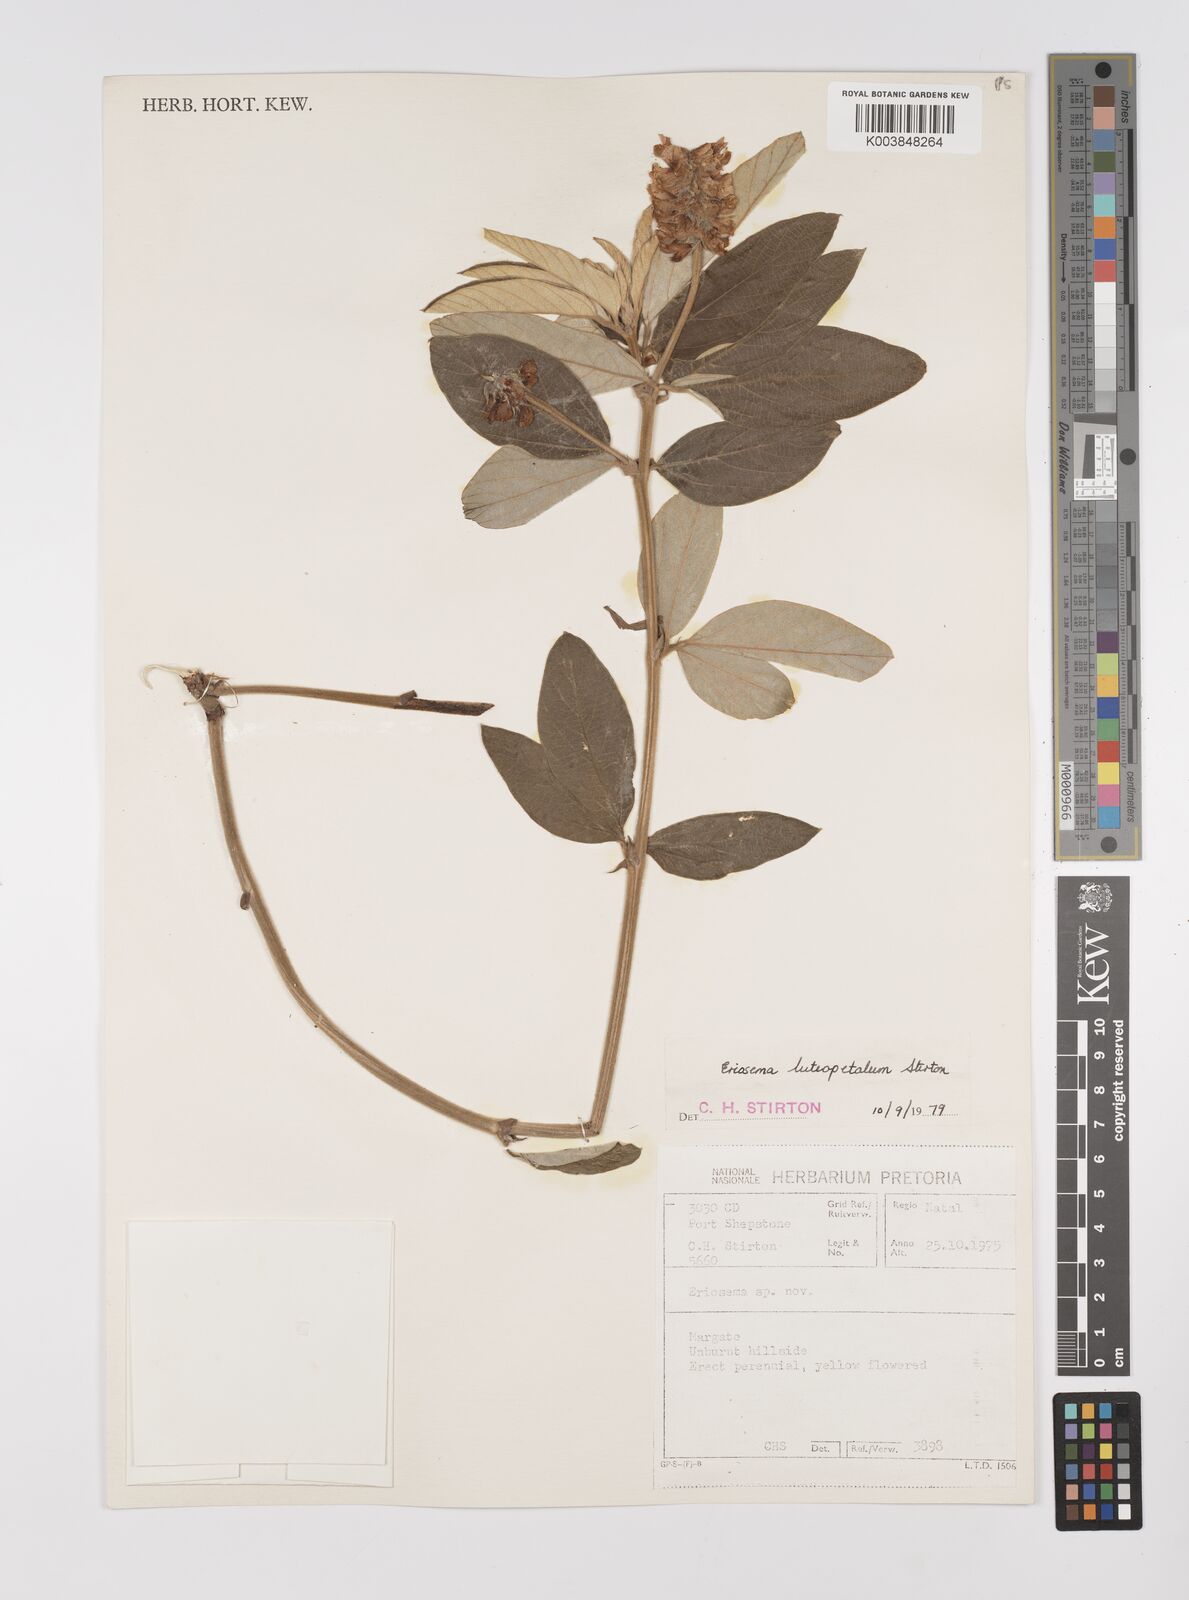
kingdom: Plantae
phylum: Tracheophyta
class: Magnoliopsida
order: Fabales
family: Fabaceae
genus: Eriosema
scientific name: Eriosema luteopetalum
